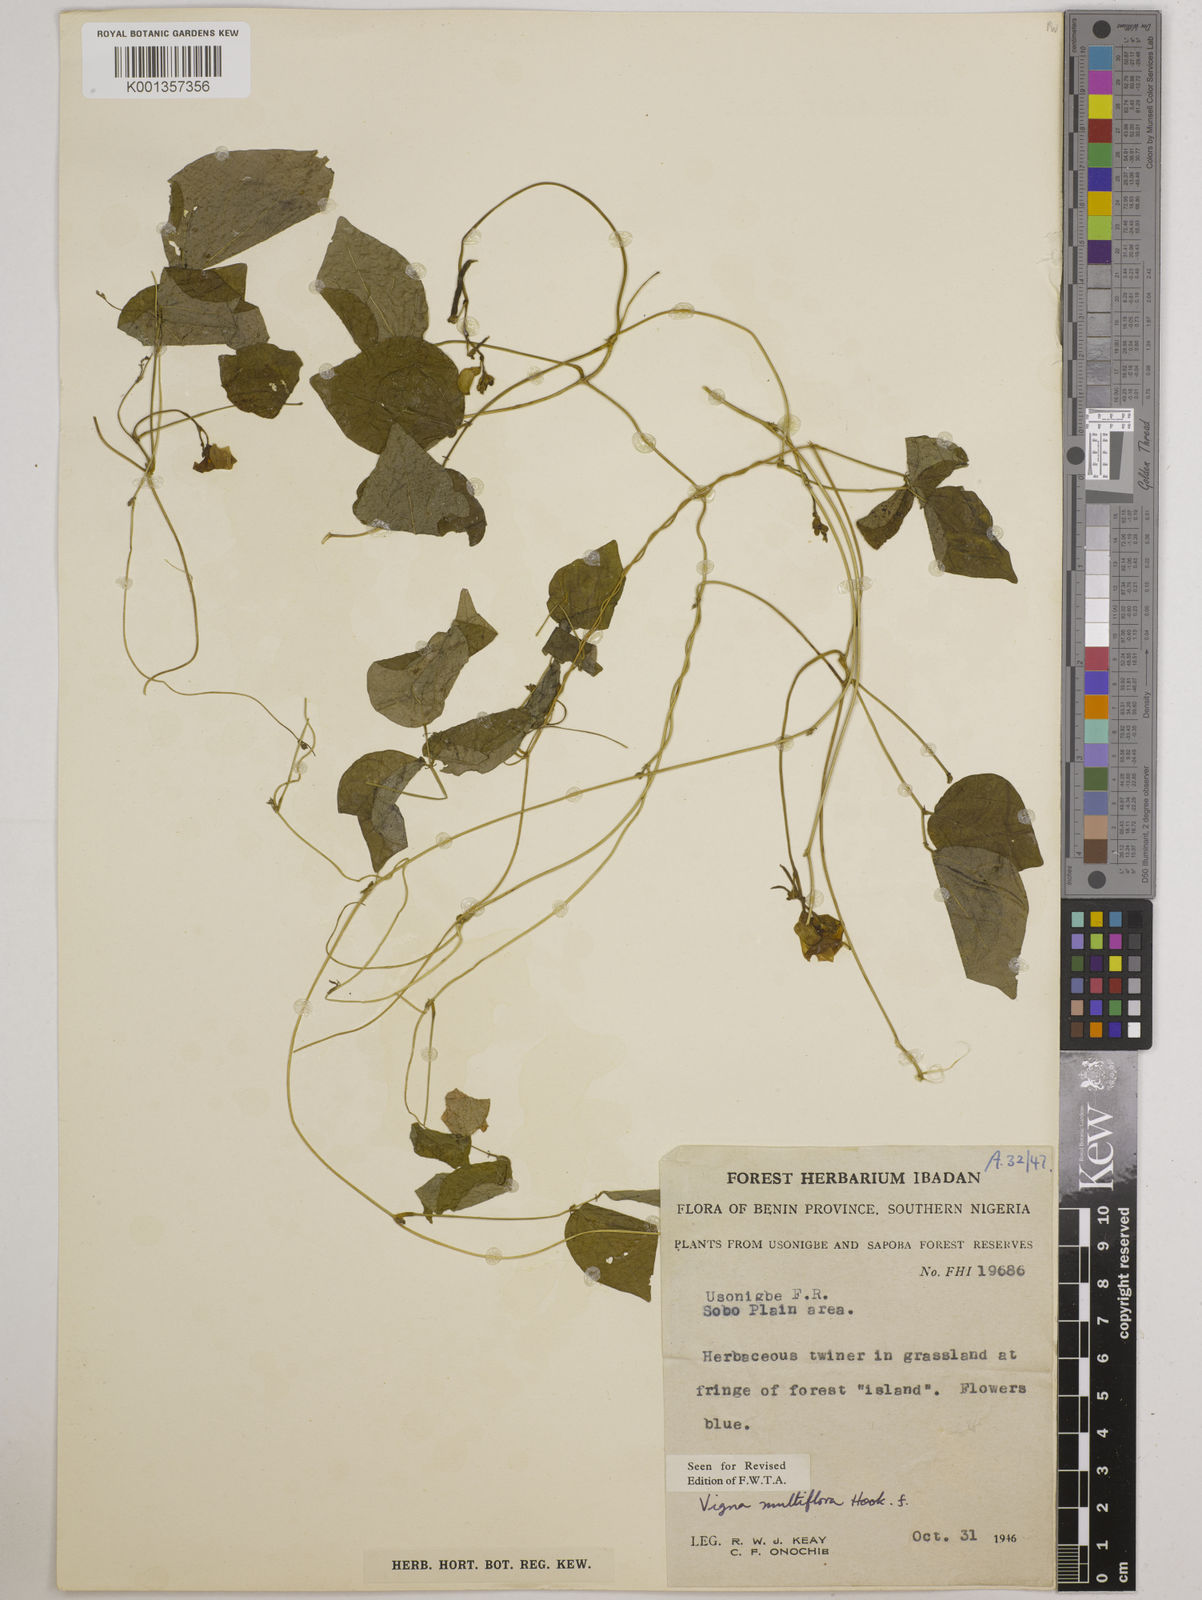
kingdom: Plantae
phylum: Tracheophyta
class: Magnoliopsida
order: Fabales
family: Fabaceae
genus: Vigna
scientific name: Vigna gracilis
